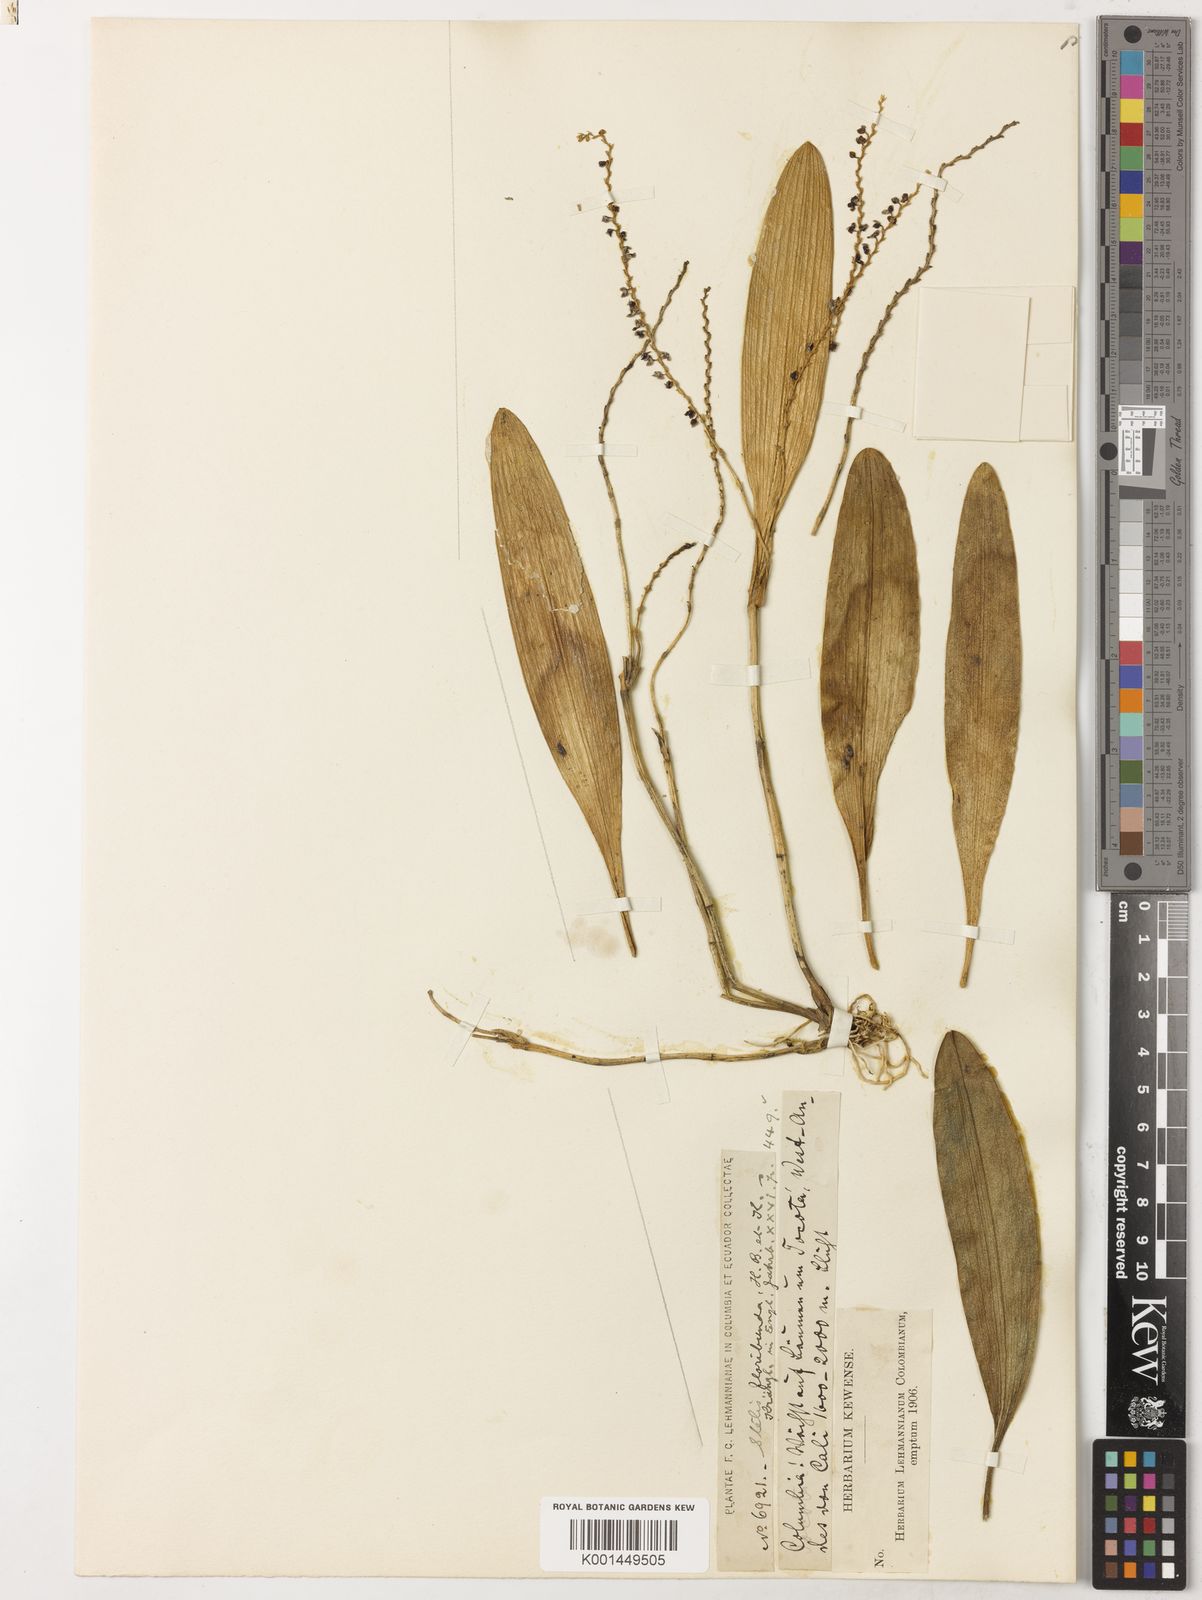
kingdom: Plantae
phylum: Tracheophyta
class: Liliopsida
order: Asparagales
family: Orchidaceae
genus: Stelis
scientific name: Stelis oblonga
